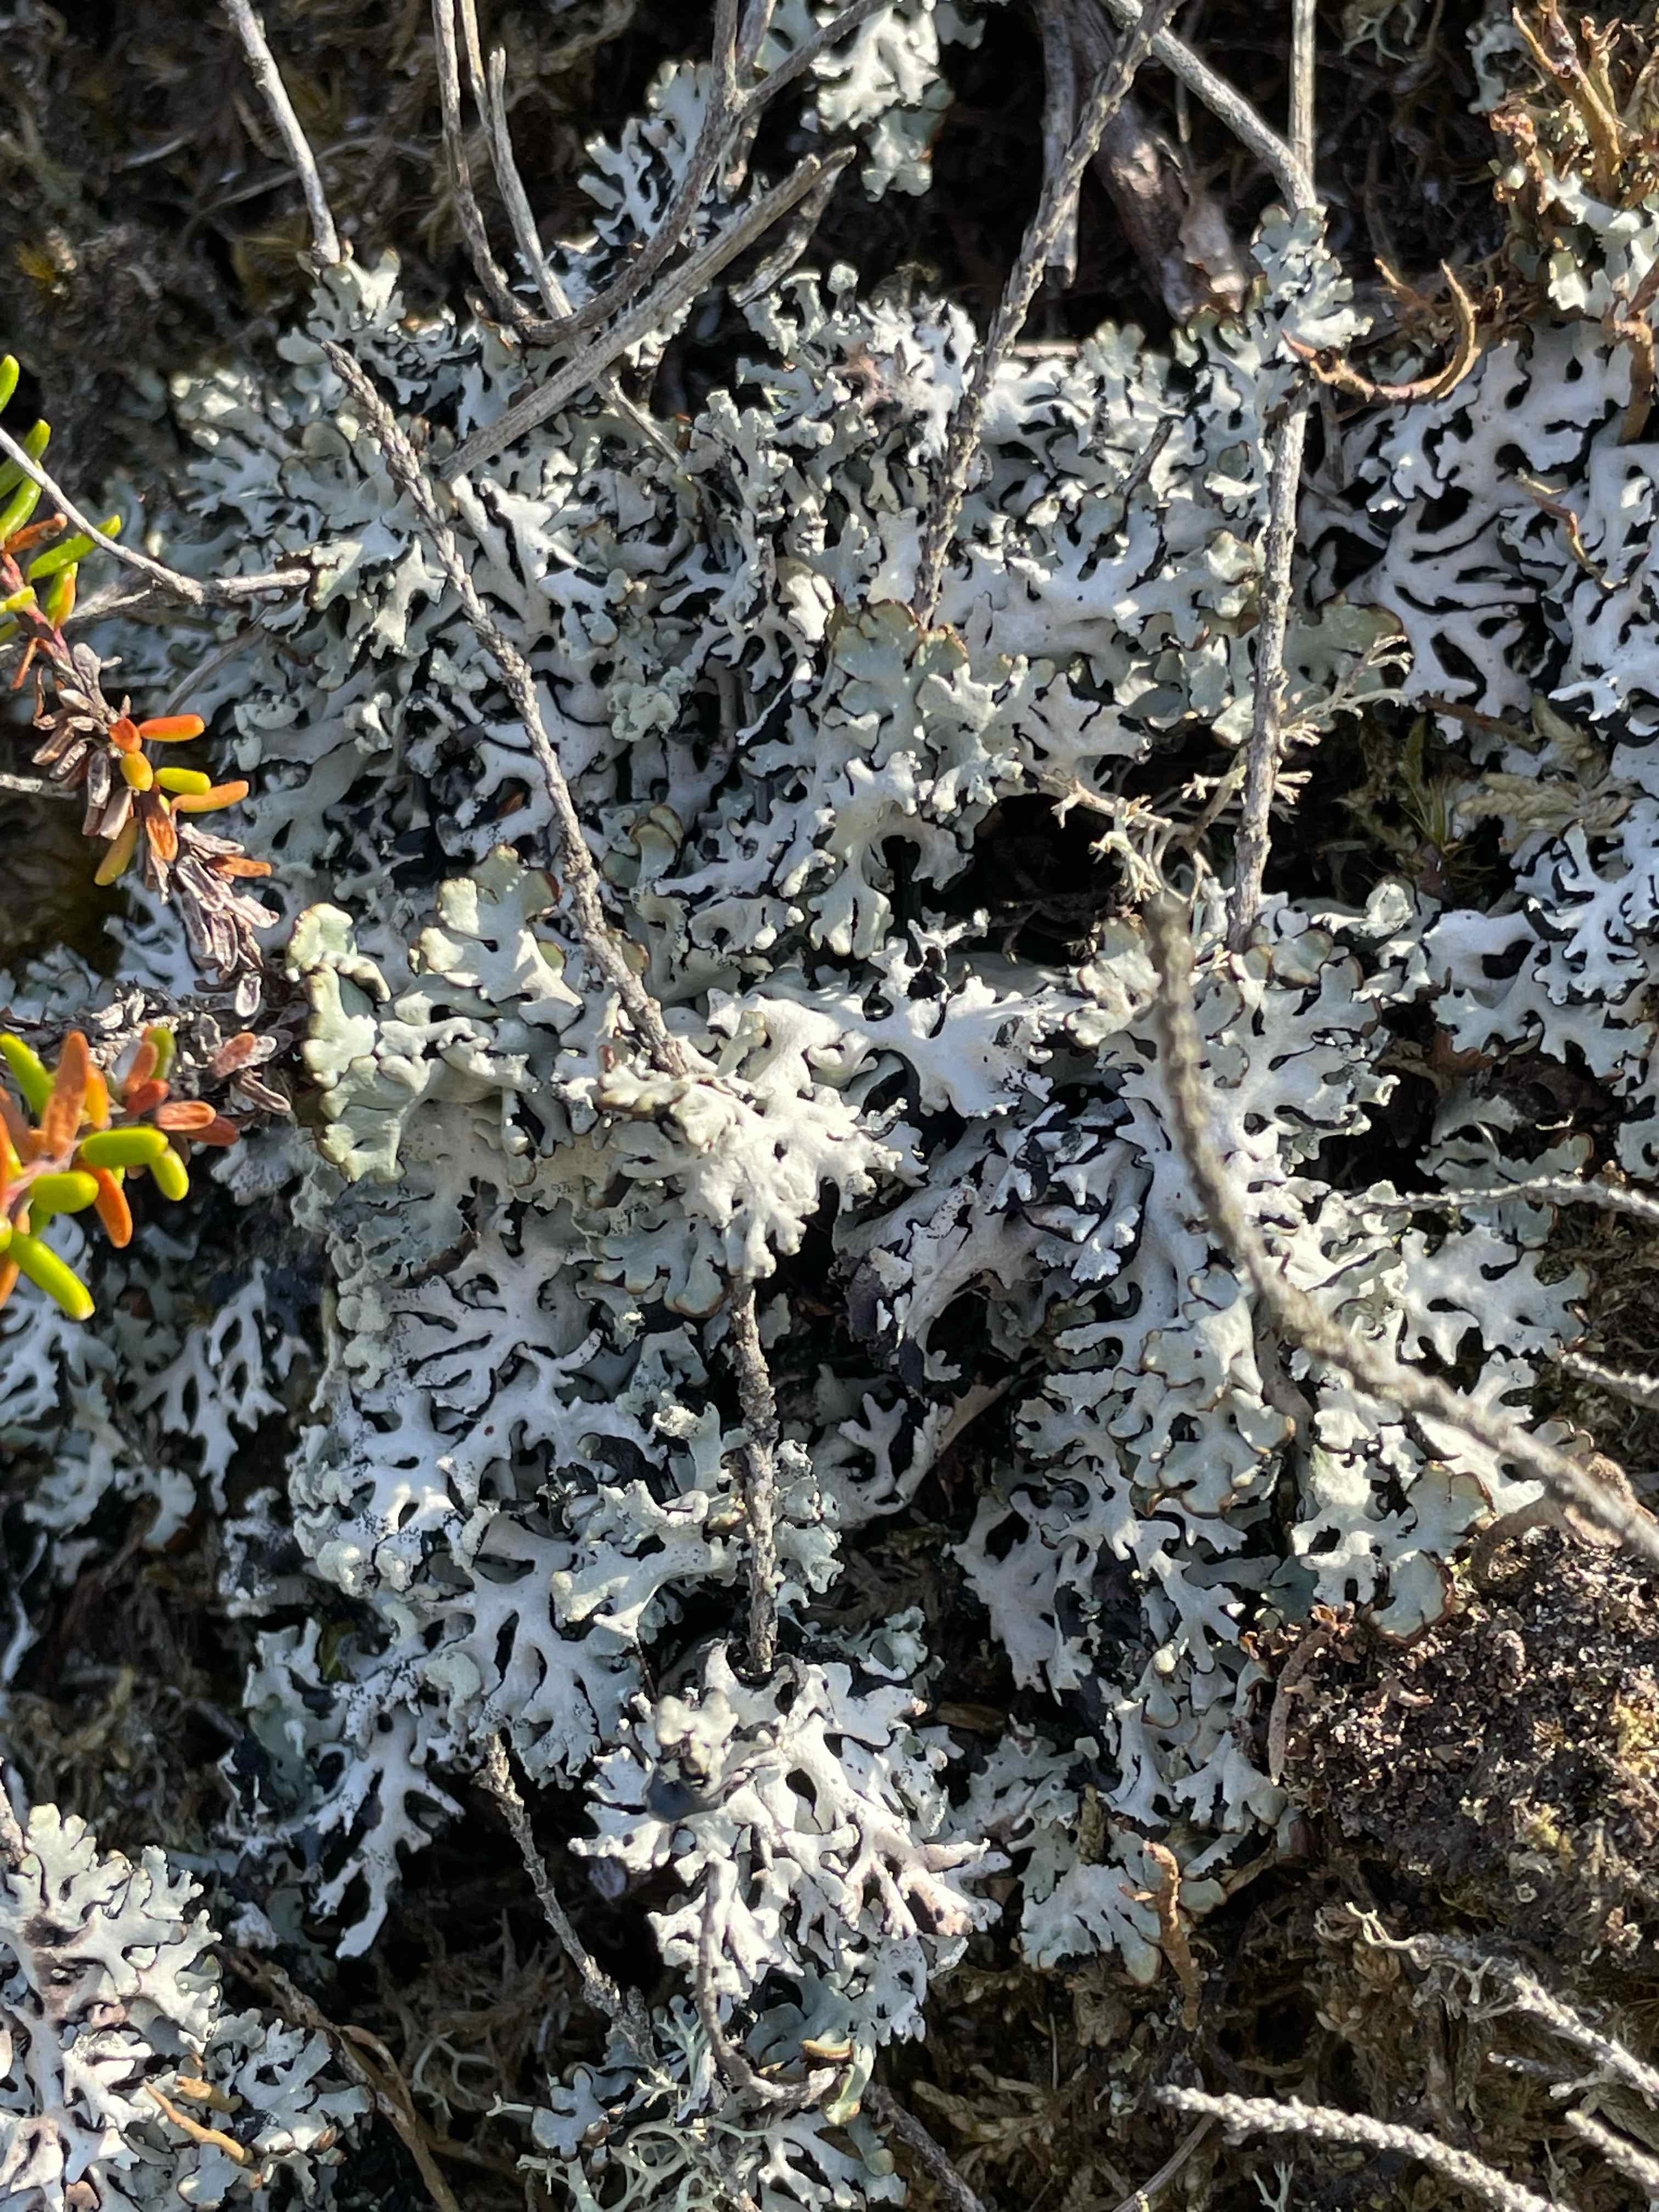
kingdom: Fungi
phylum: Ascomycota
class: Lecanoromycetes
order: Lecanorales
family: Parmeliaceae
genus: Hypogymnia
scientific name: Hypogymnia physodes
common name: almindelig kvistlav
